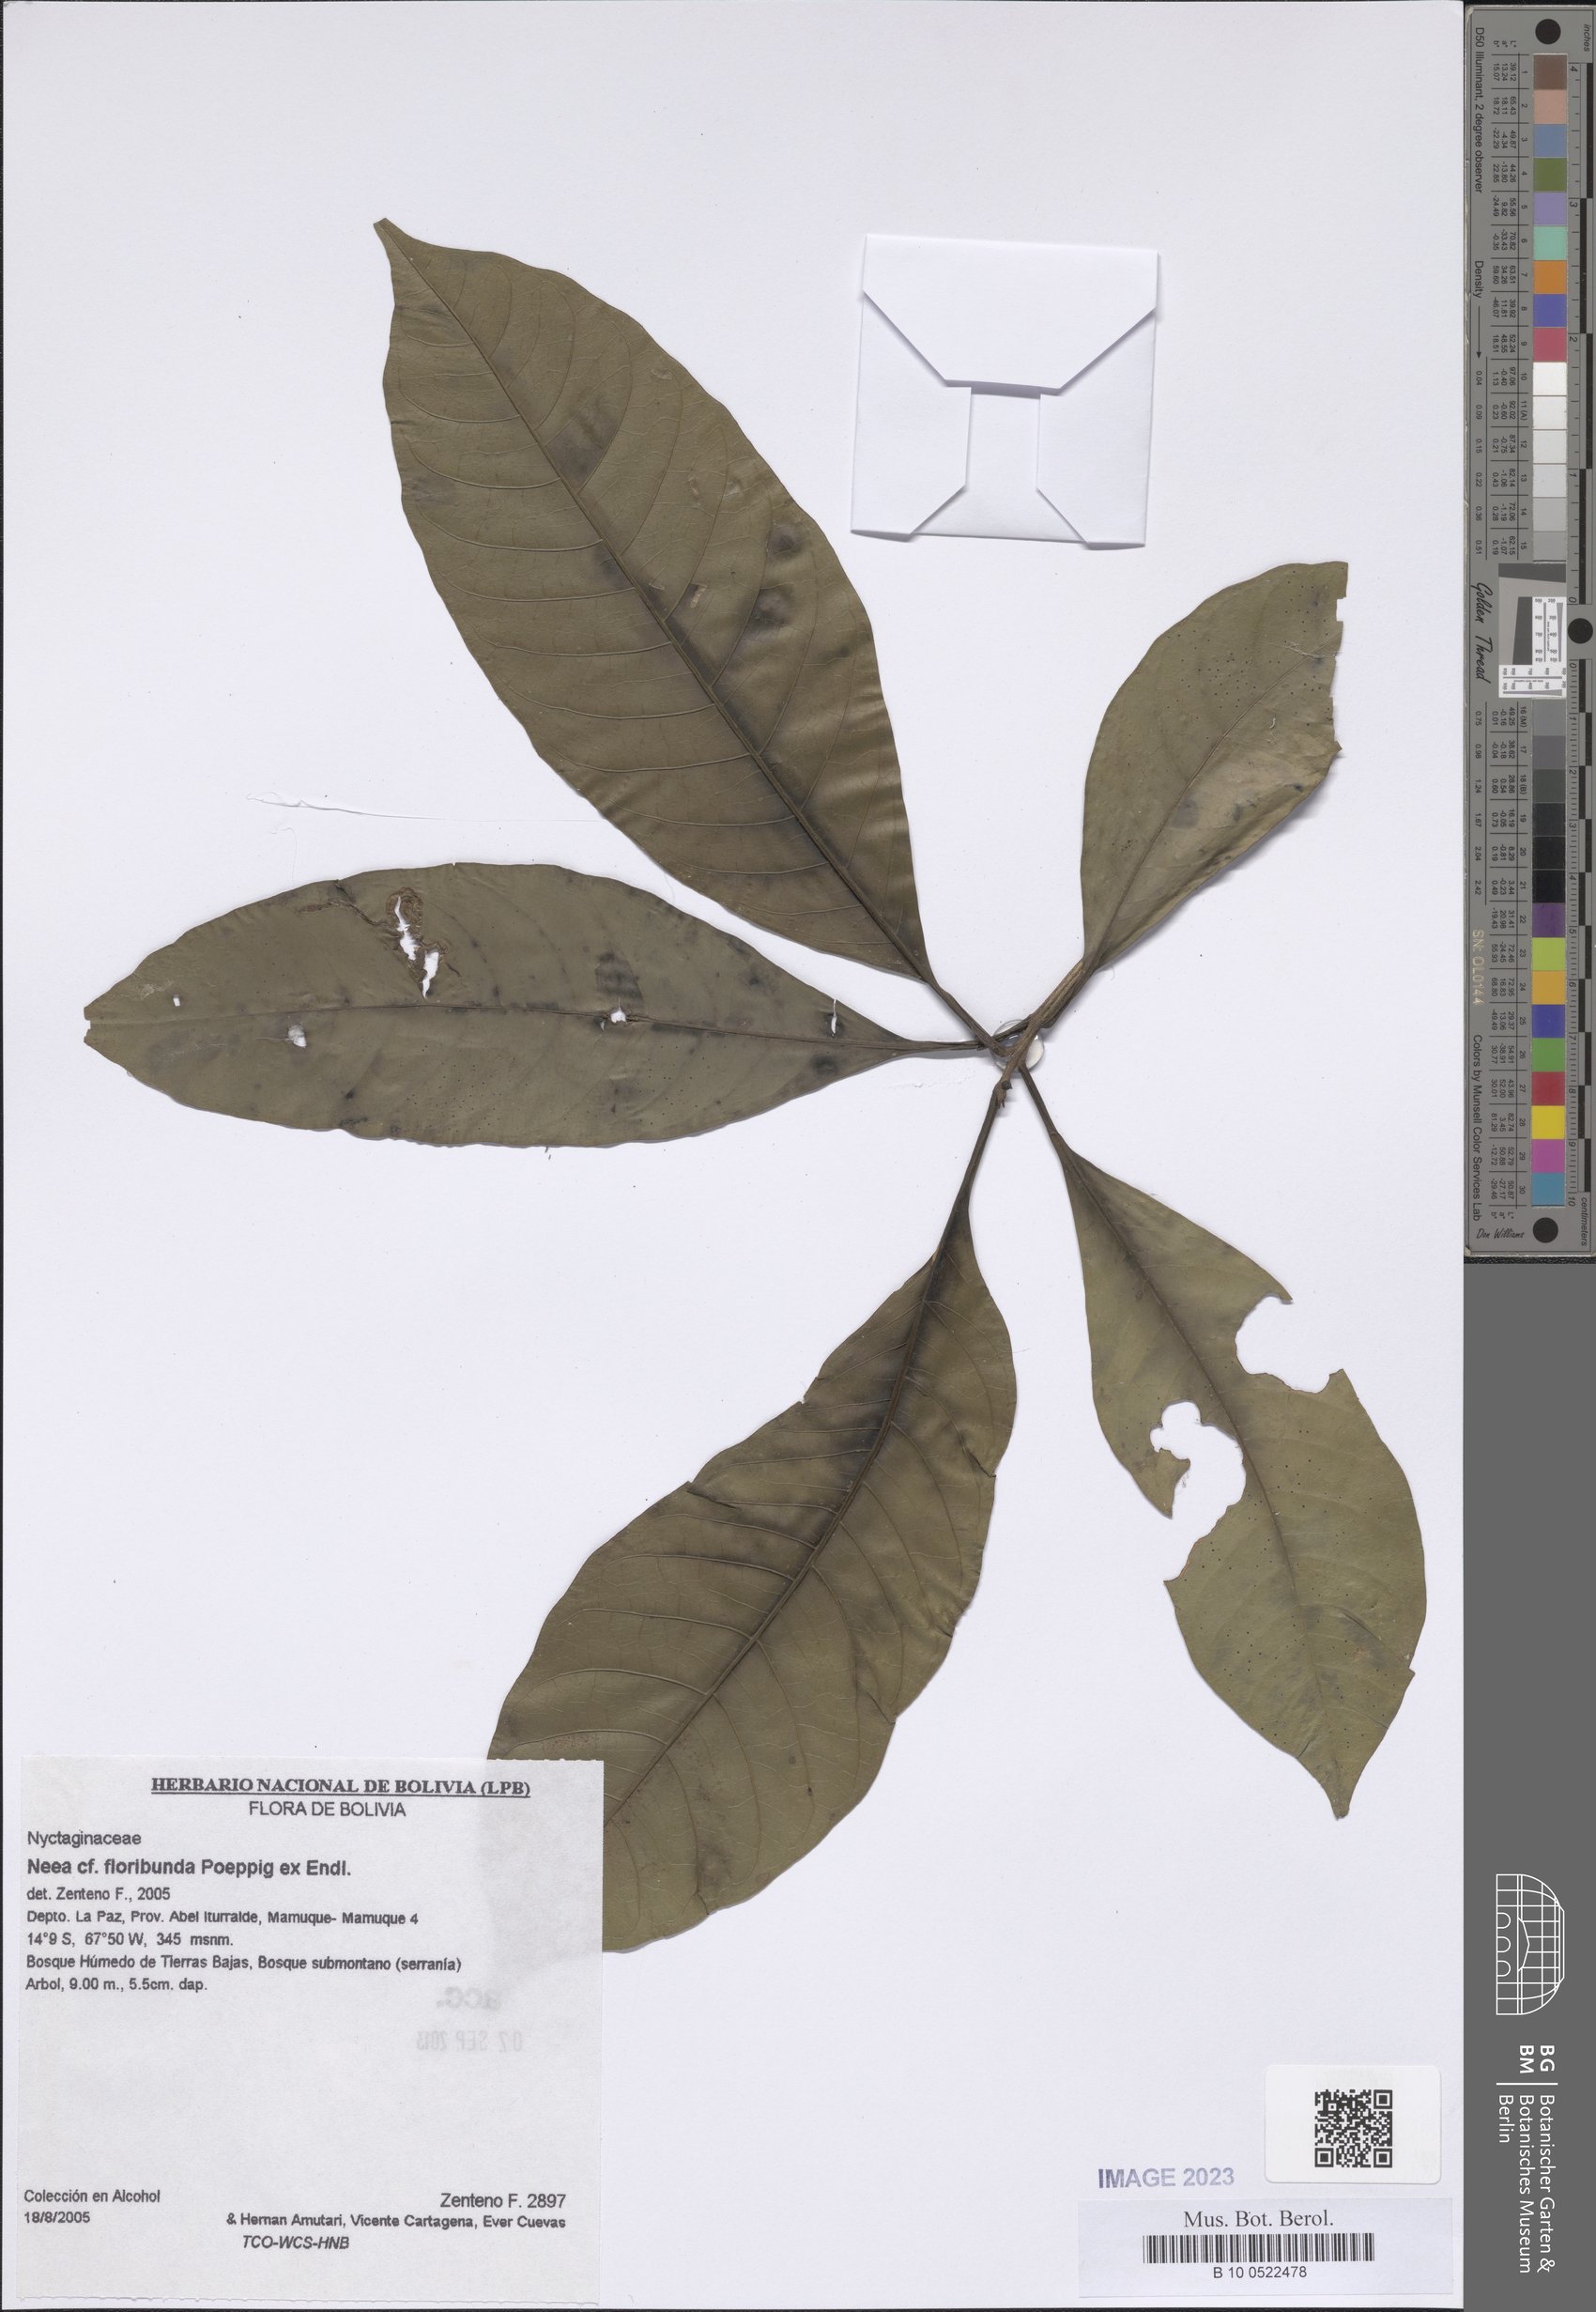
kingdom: Plantae
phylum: Tracheophyta
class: Magnoliopsida
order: Caryophyllales
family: Nyctaginaceae
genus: Neea
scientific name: Neea floribunda
